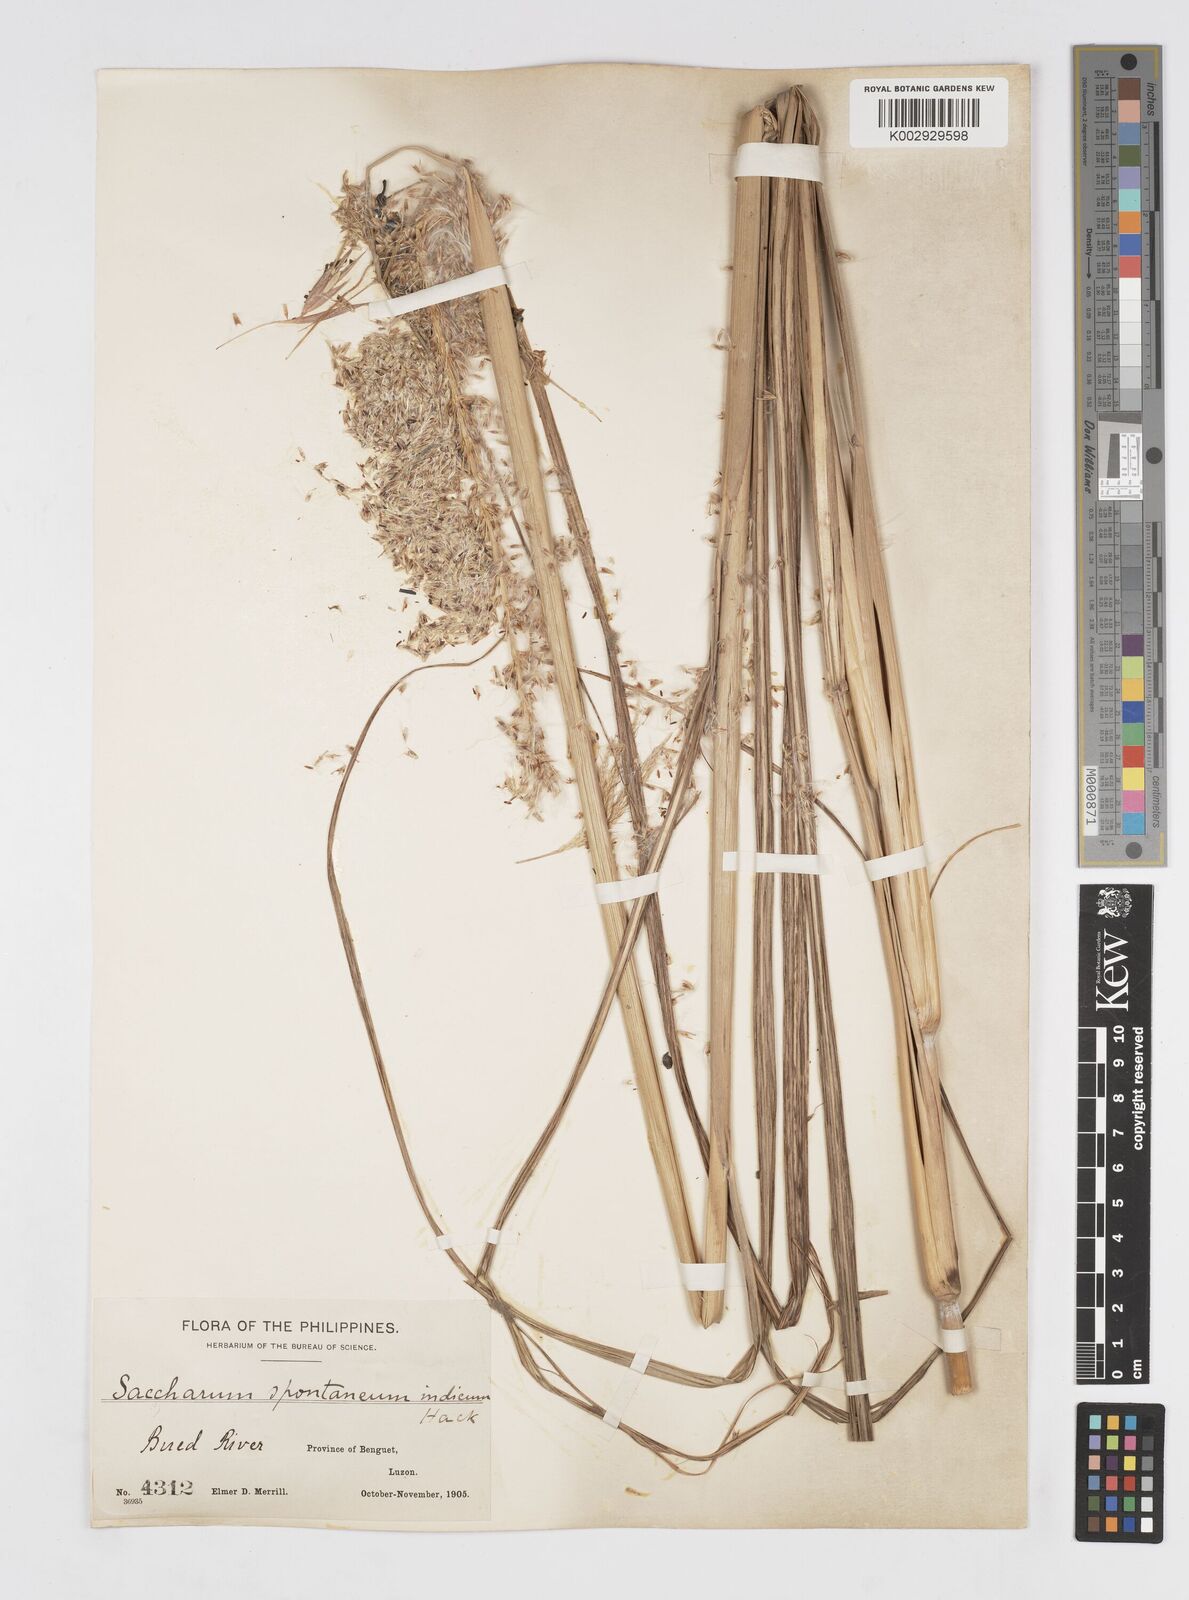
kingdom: Plantae
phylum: Tracheophyta
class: Liliopsida
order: Poales
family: Poaceae
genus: Saccharum
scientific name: Saccharum spontaneum
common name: Wild sugarcane
